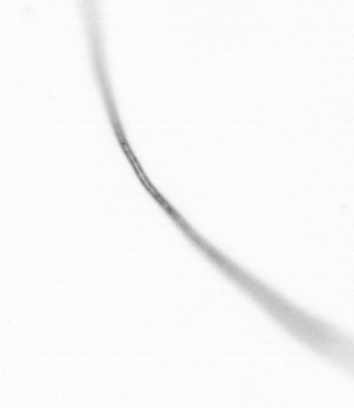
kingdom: Chromista
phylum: Ochrophyta
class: Bacillariophyceae
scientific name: Bacillariophyceae
